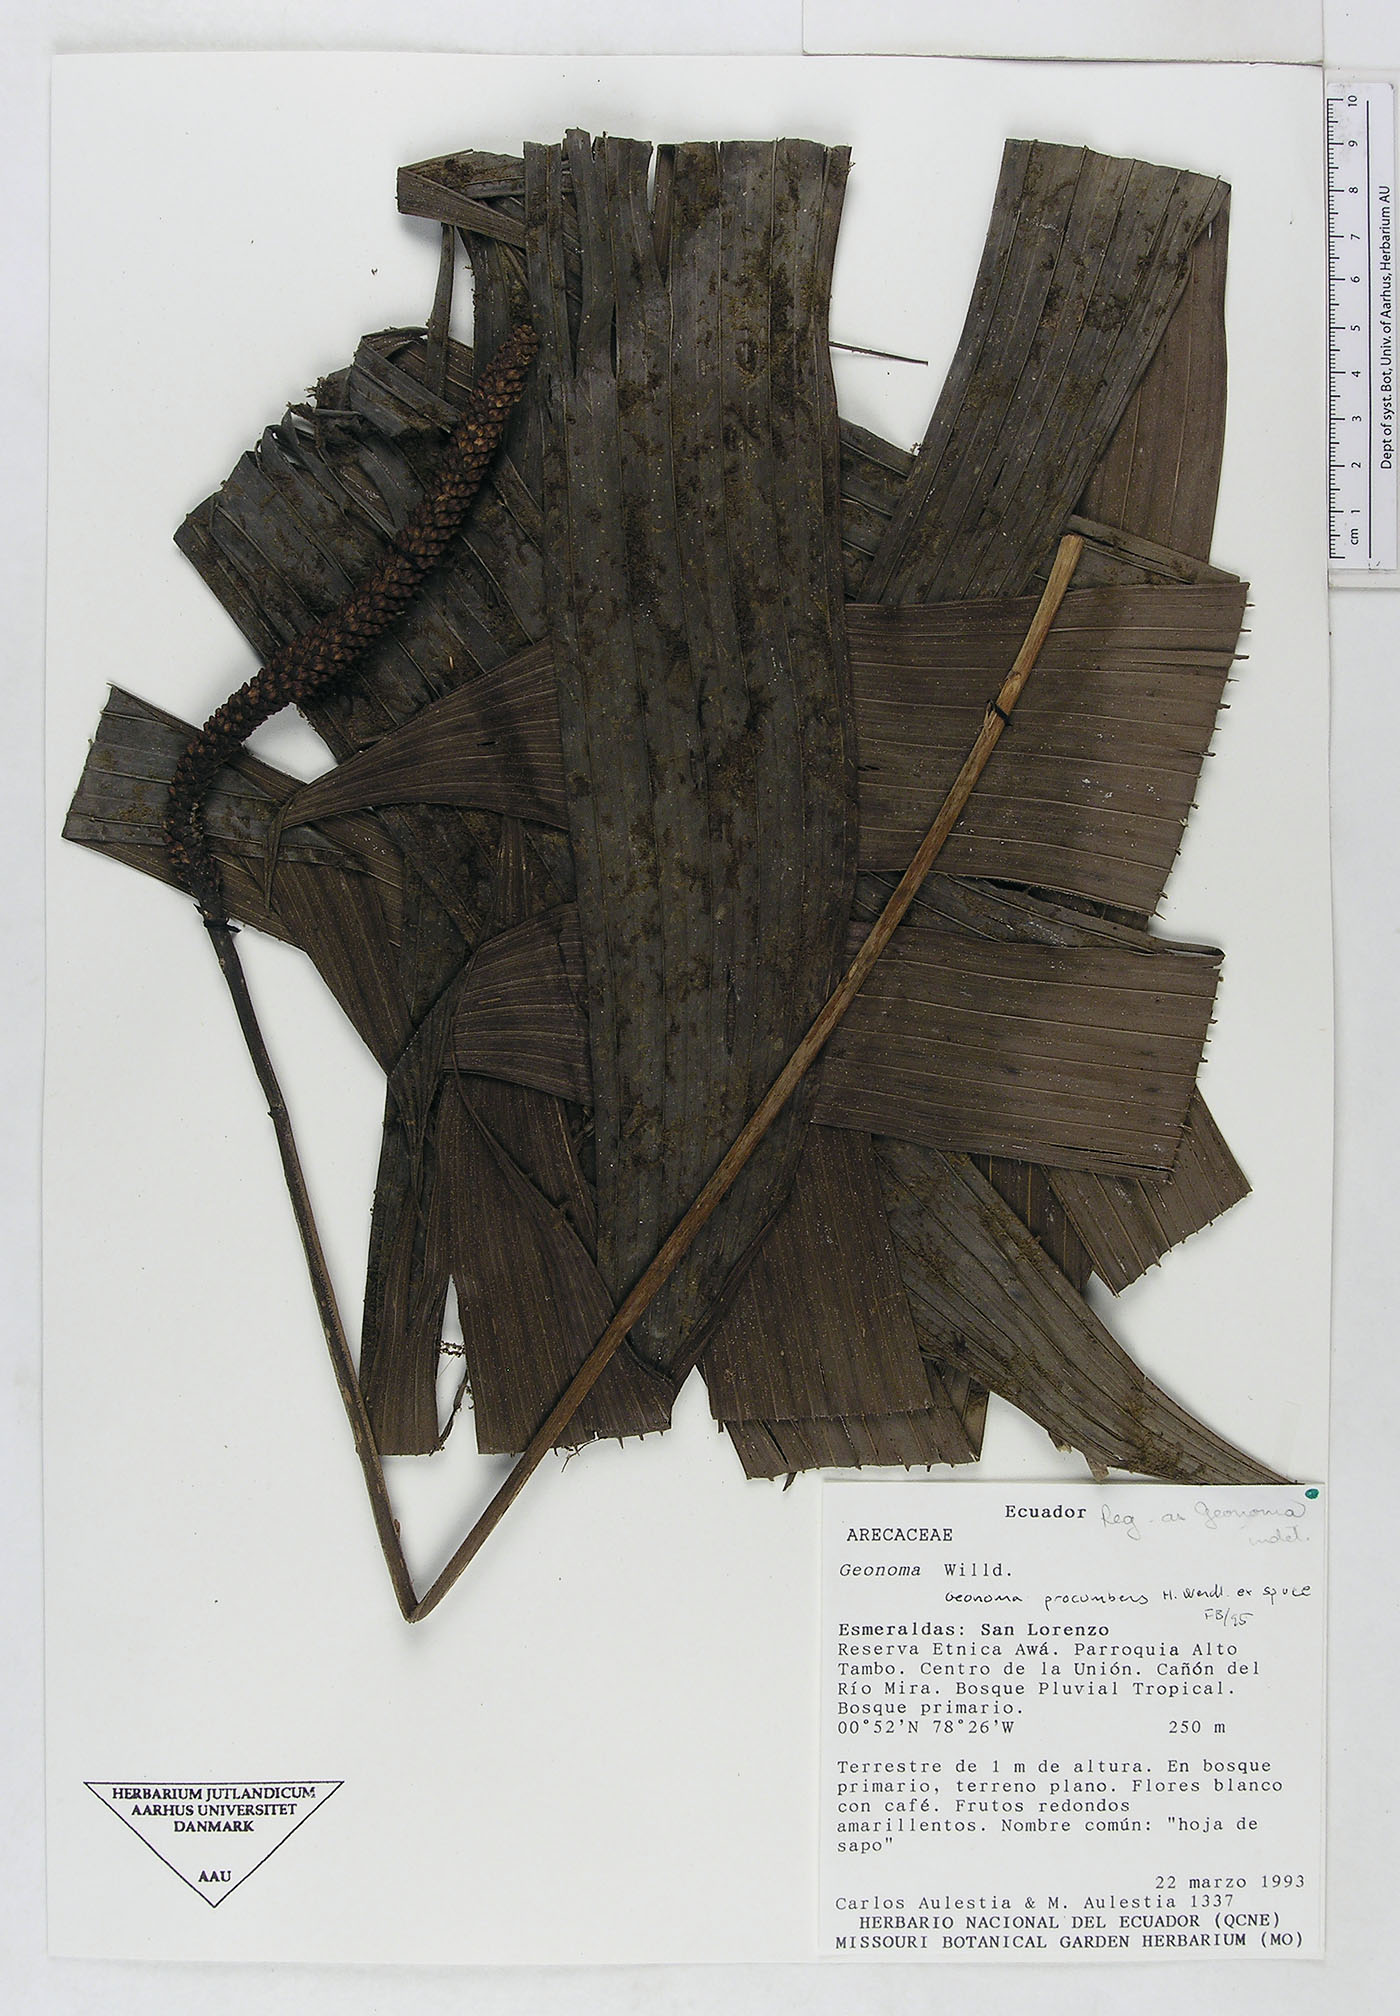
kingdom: Plantae
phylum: Tracheophyta
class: Liliopsida
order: Arecales
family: Arecaceae
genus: Geonoma
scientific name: Geonoma
